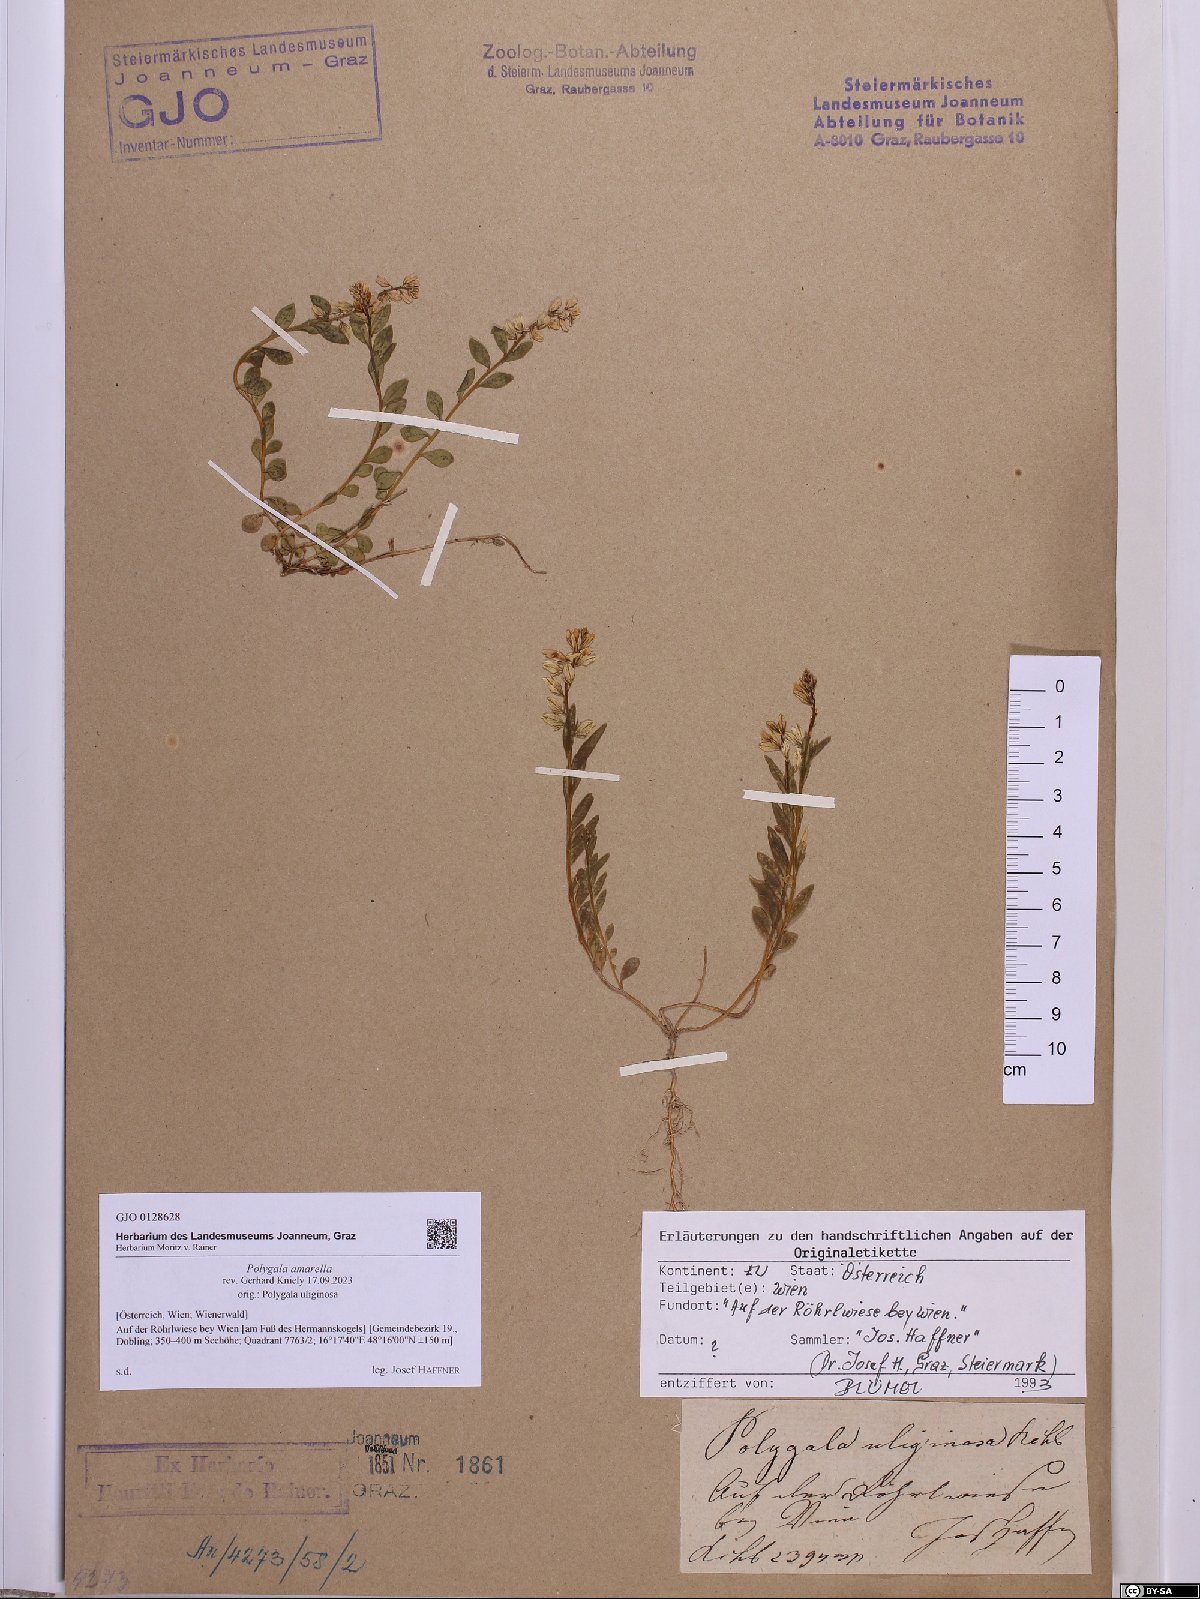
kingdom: Plantae
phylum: Tracheophyta
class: Magnoliopsida
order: Fabales
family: Polygalaceae
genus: Polygala
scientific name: Polygala amarella
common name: Dwarf milkwort
